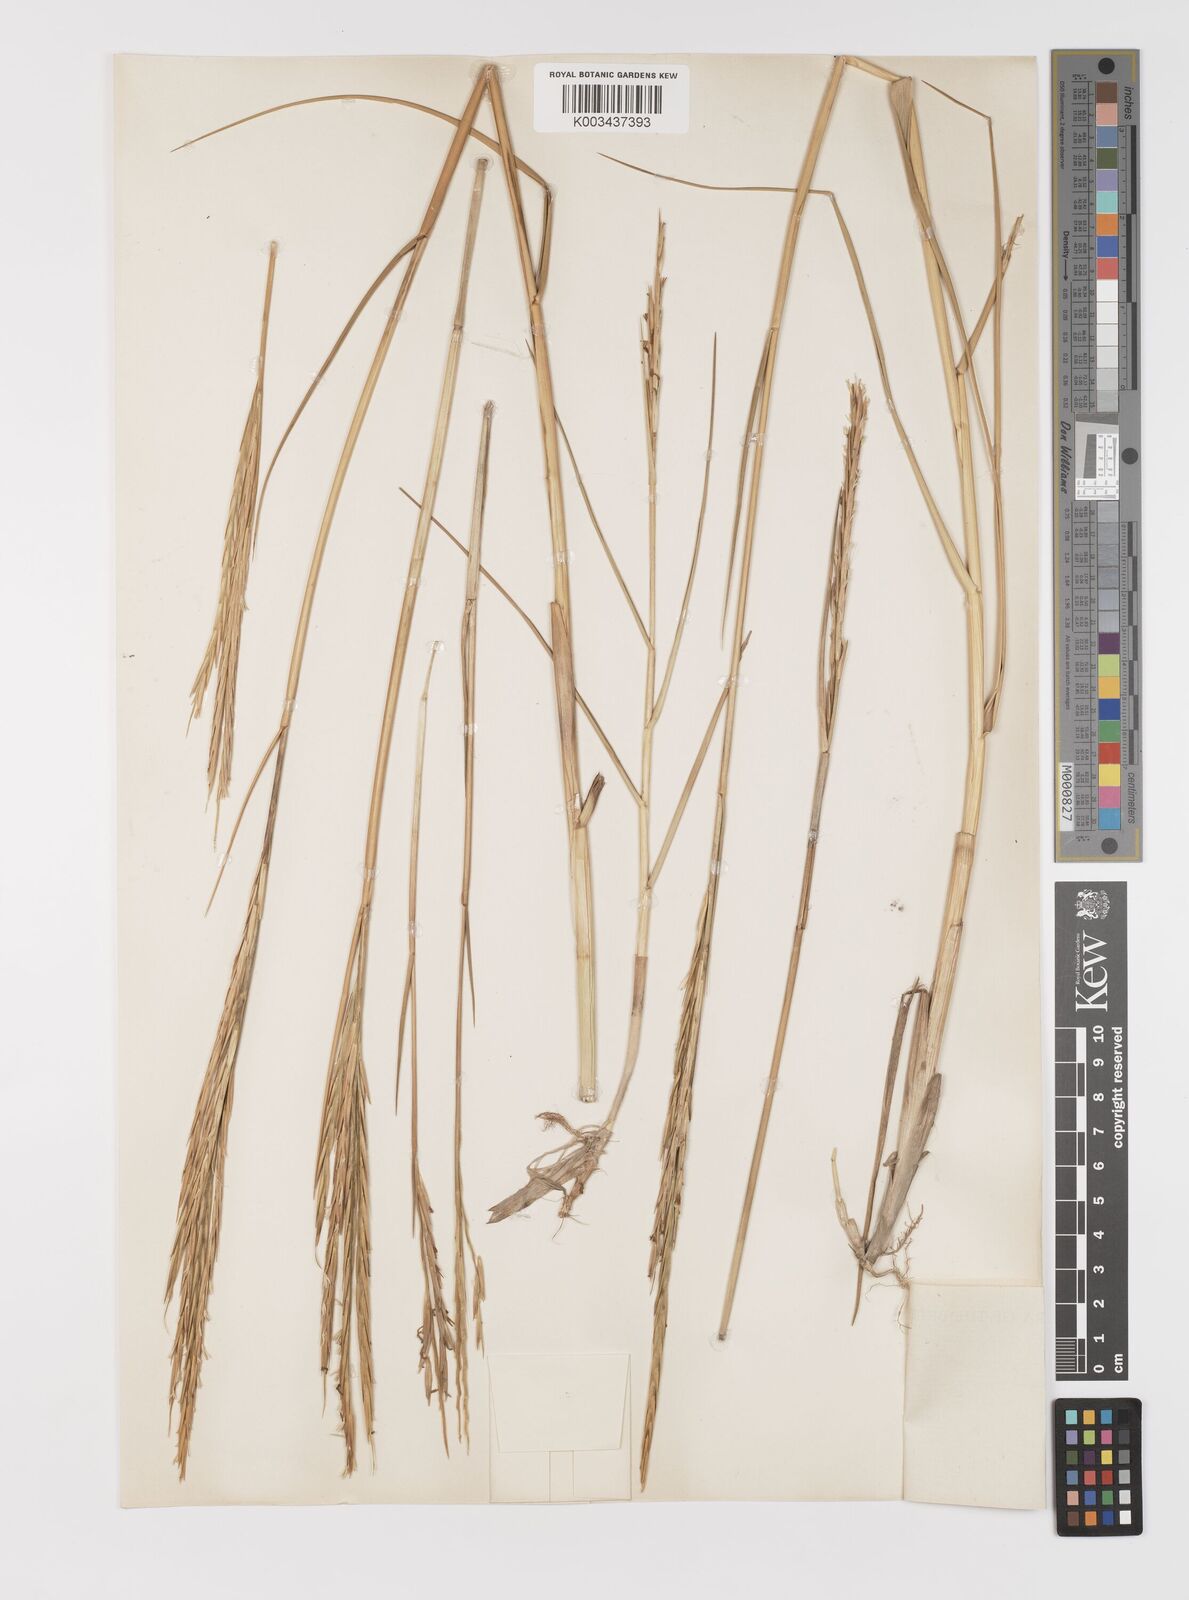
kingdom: Plantae
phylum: Tracheophyta
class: Liliopsida
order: Poales
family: Poaceae
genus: Sporobolus
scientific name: Sporobolus townsendii
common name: Townsend's cordgrass
